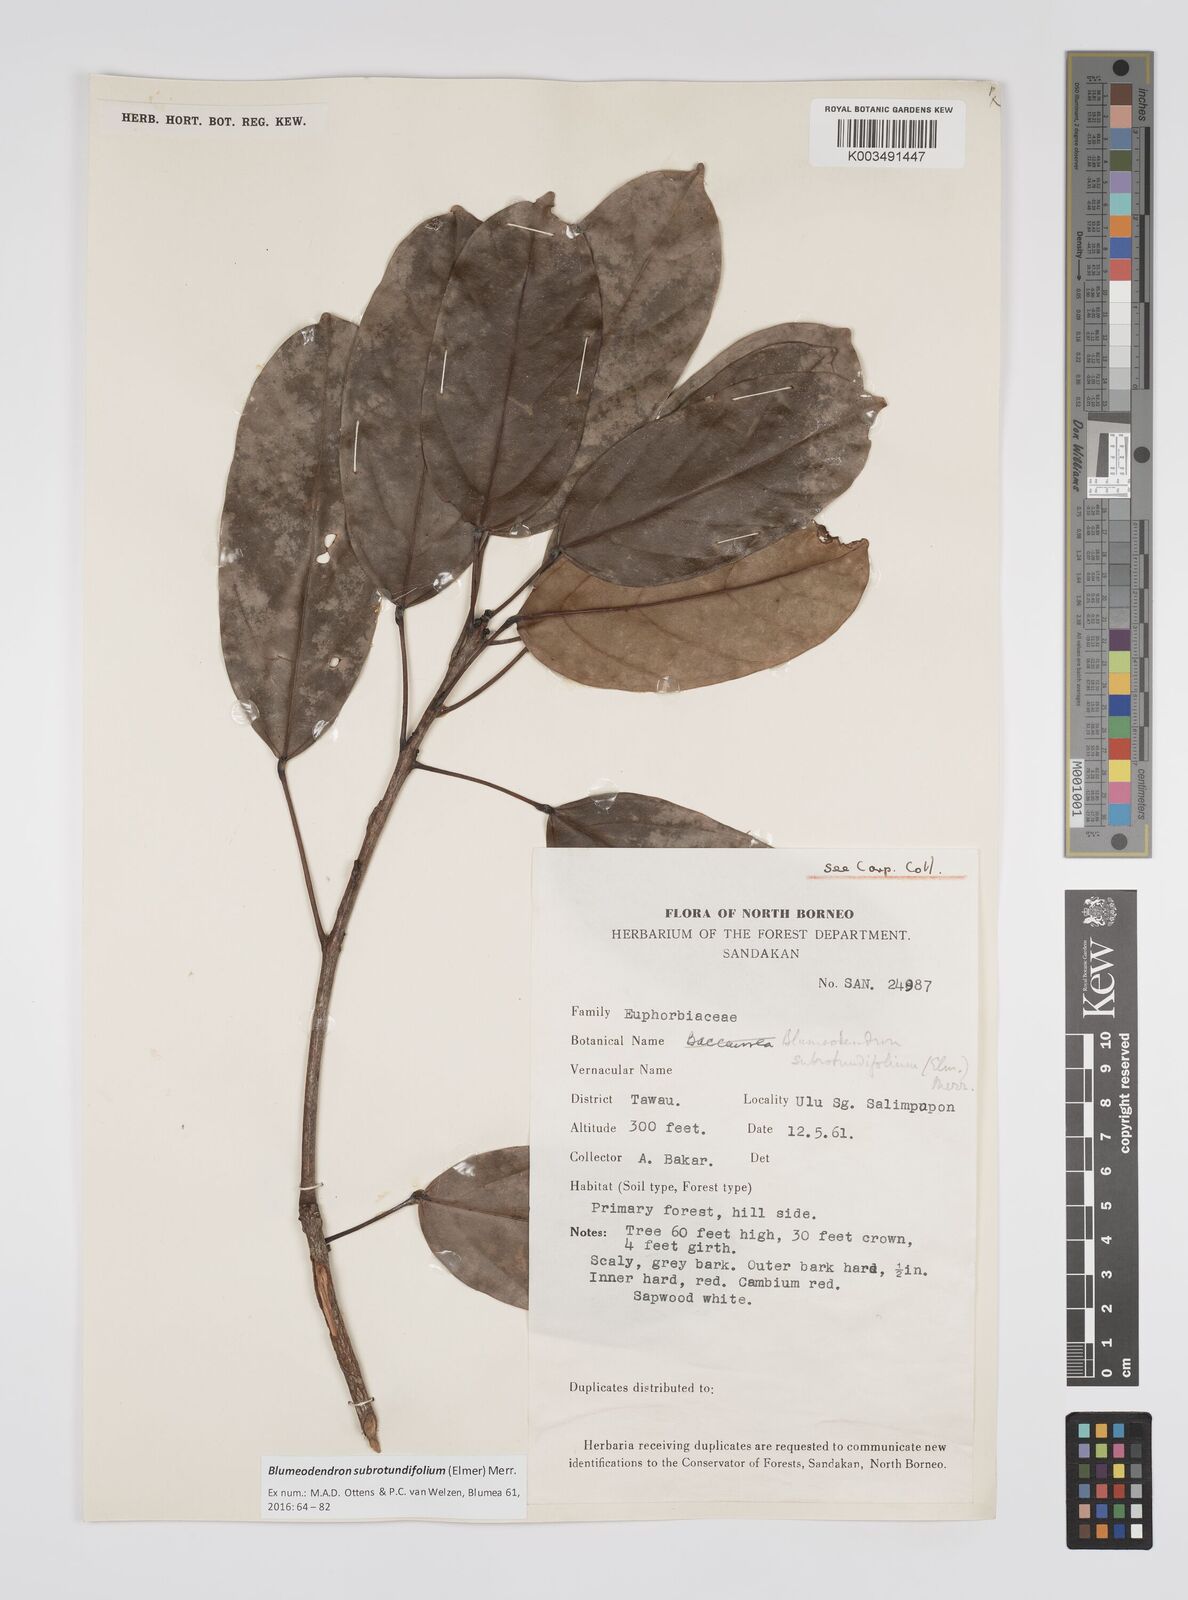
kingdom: Plantae
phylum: Tracheophyta
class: Magnoliopsida
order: Malpighiales
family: Euphorbiaceae
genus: Blumeodendron
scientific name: Blumeodendron subrotundifolium
